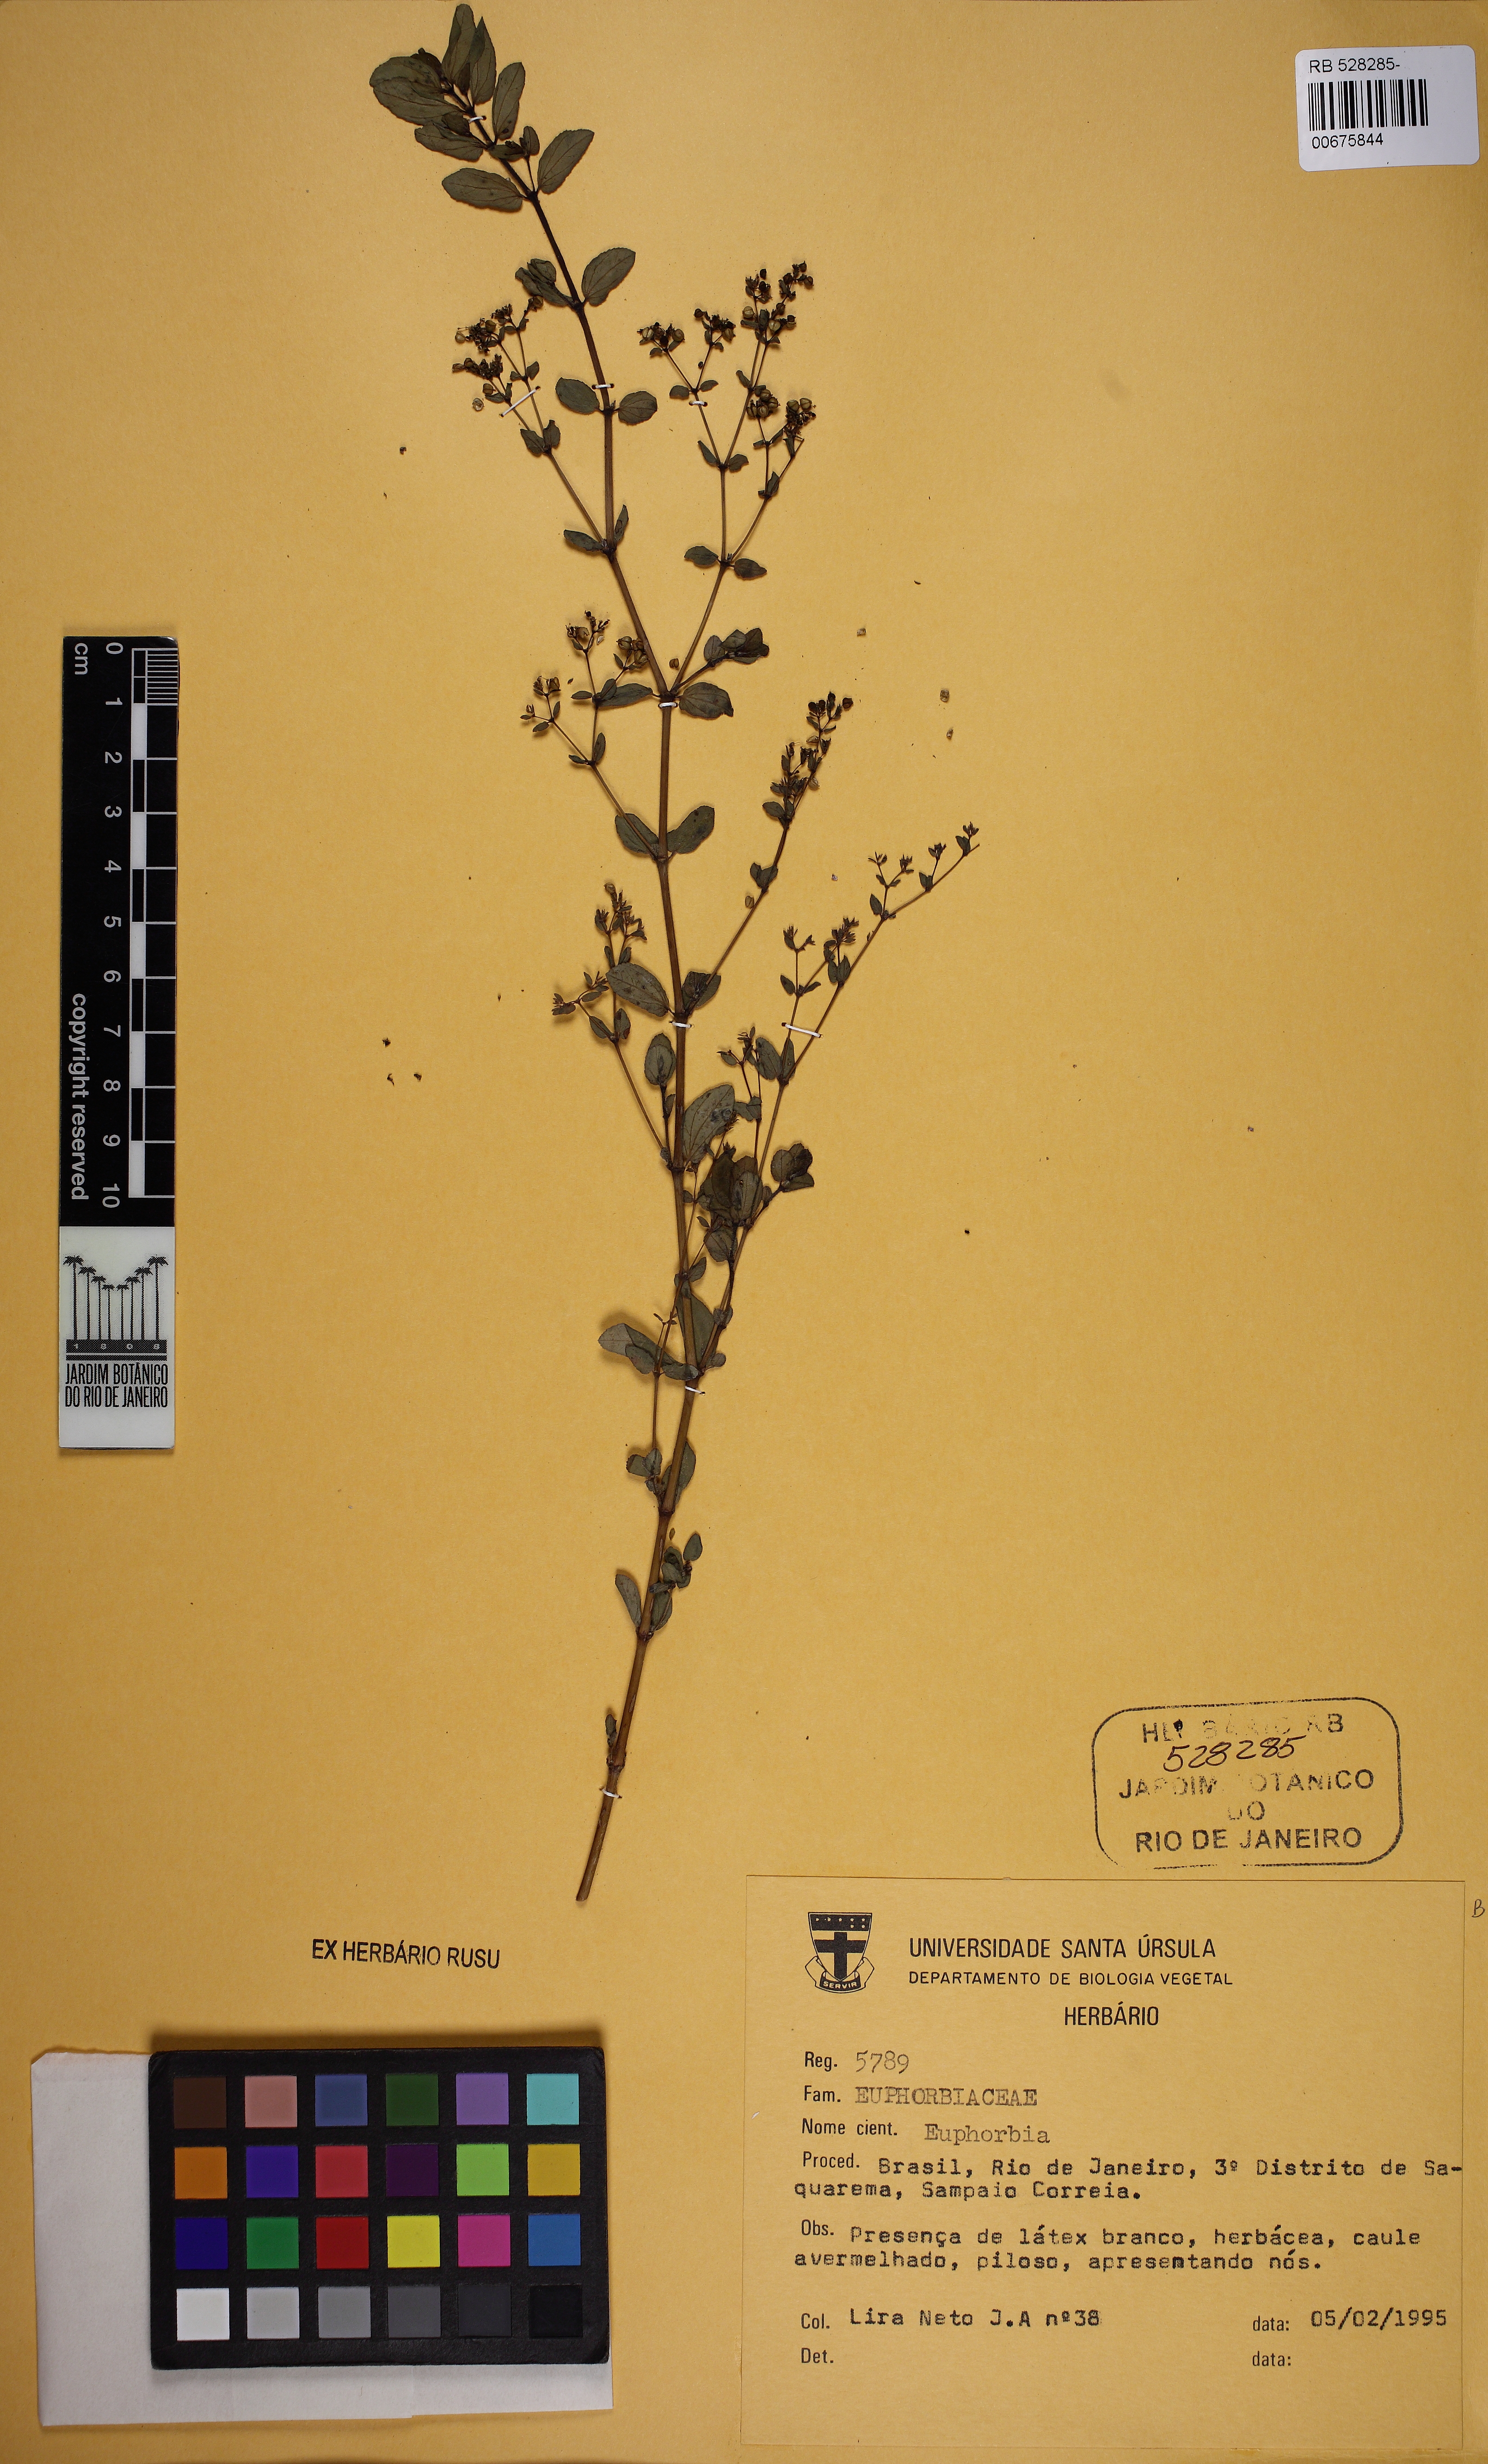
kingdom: Plantae
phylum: Tracheophyta
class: Magnoliopsida
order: Malpighiales
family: Euphorbiaceae
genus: Euphorbia
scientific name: Euphorbia hyssopifolia
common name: Hyssopleaf sandmat
